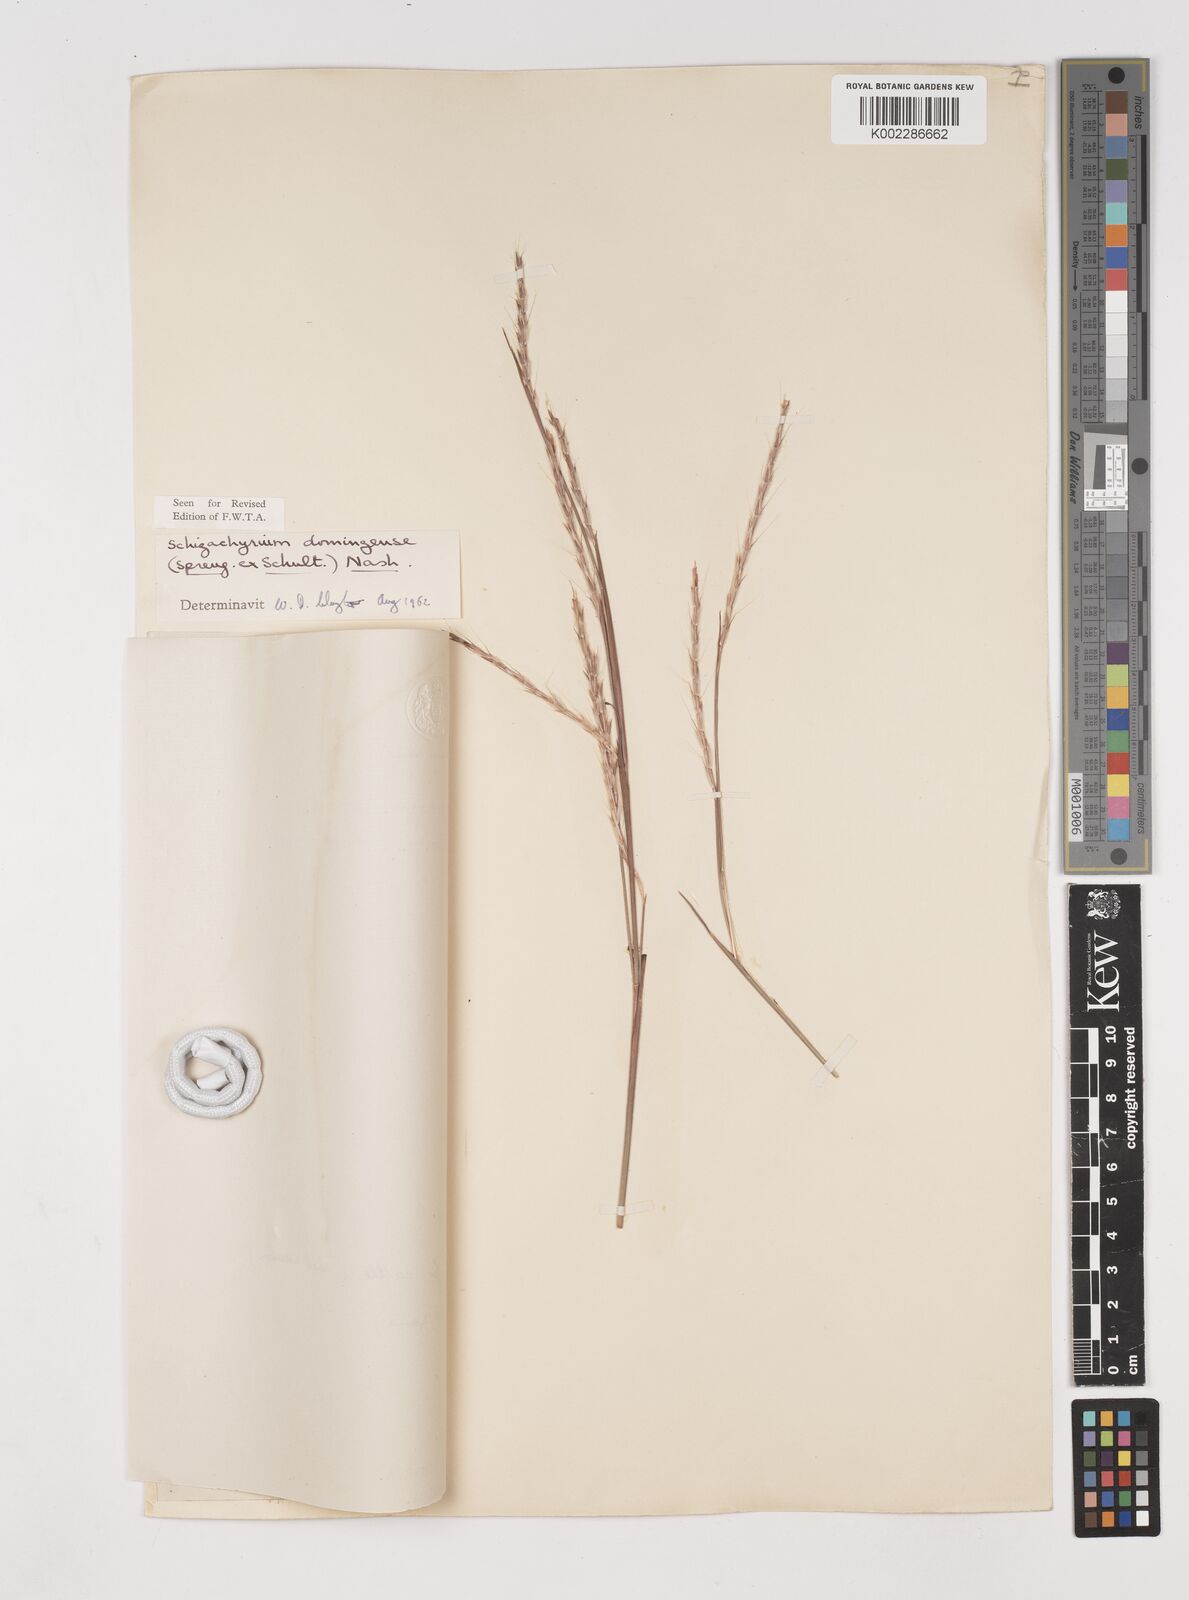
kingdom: Plantae
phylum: Tracheophyta
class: Liliopsida
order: Poales
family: Poaceae
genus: Schizachyrium
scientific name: Schizachyrium sanguineum
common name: Crimson bluestem
